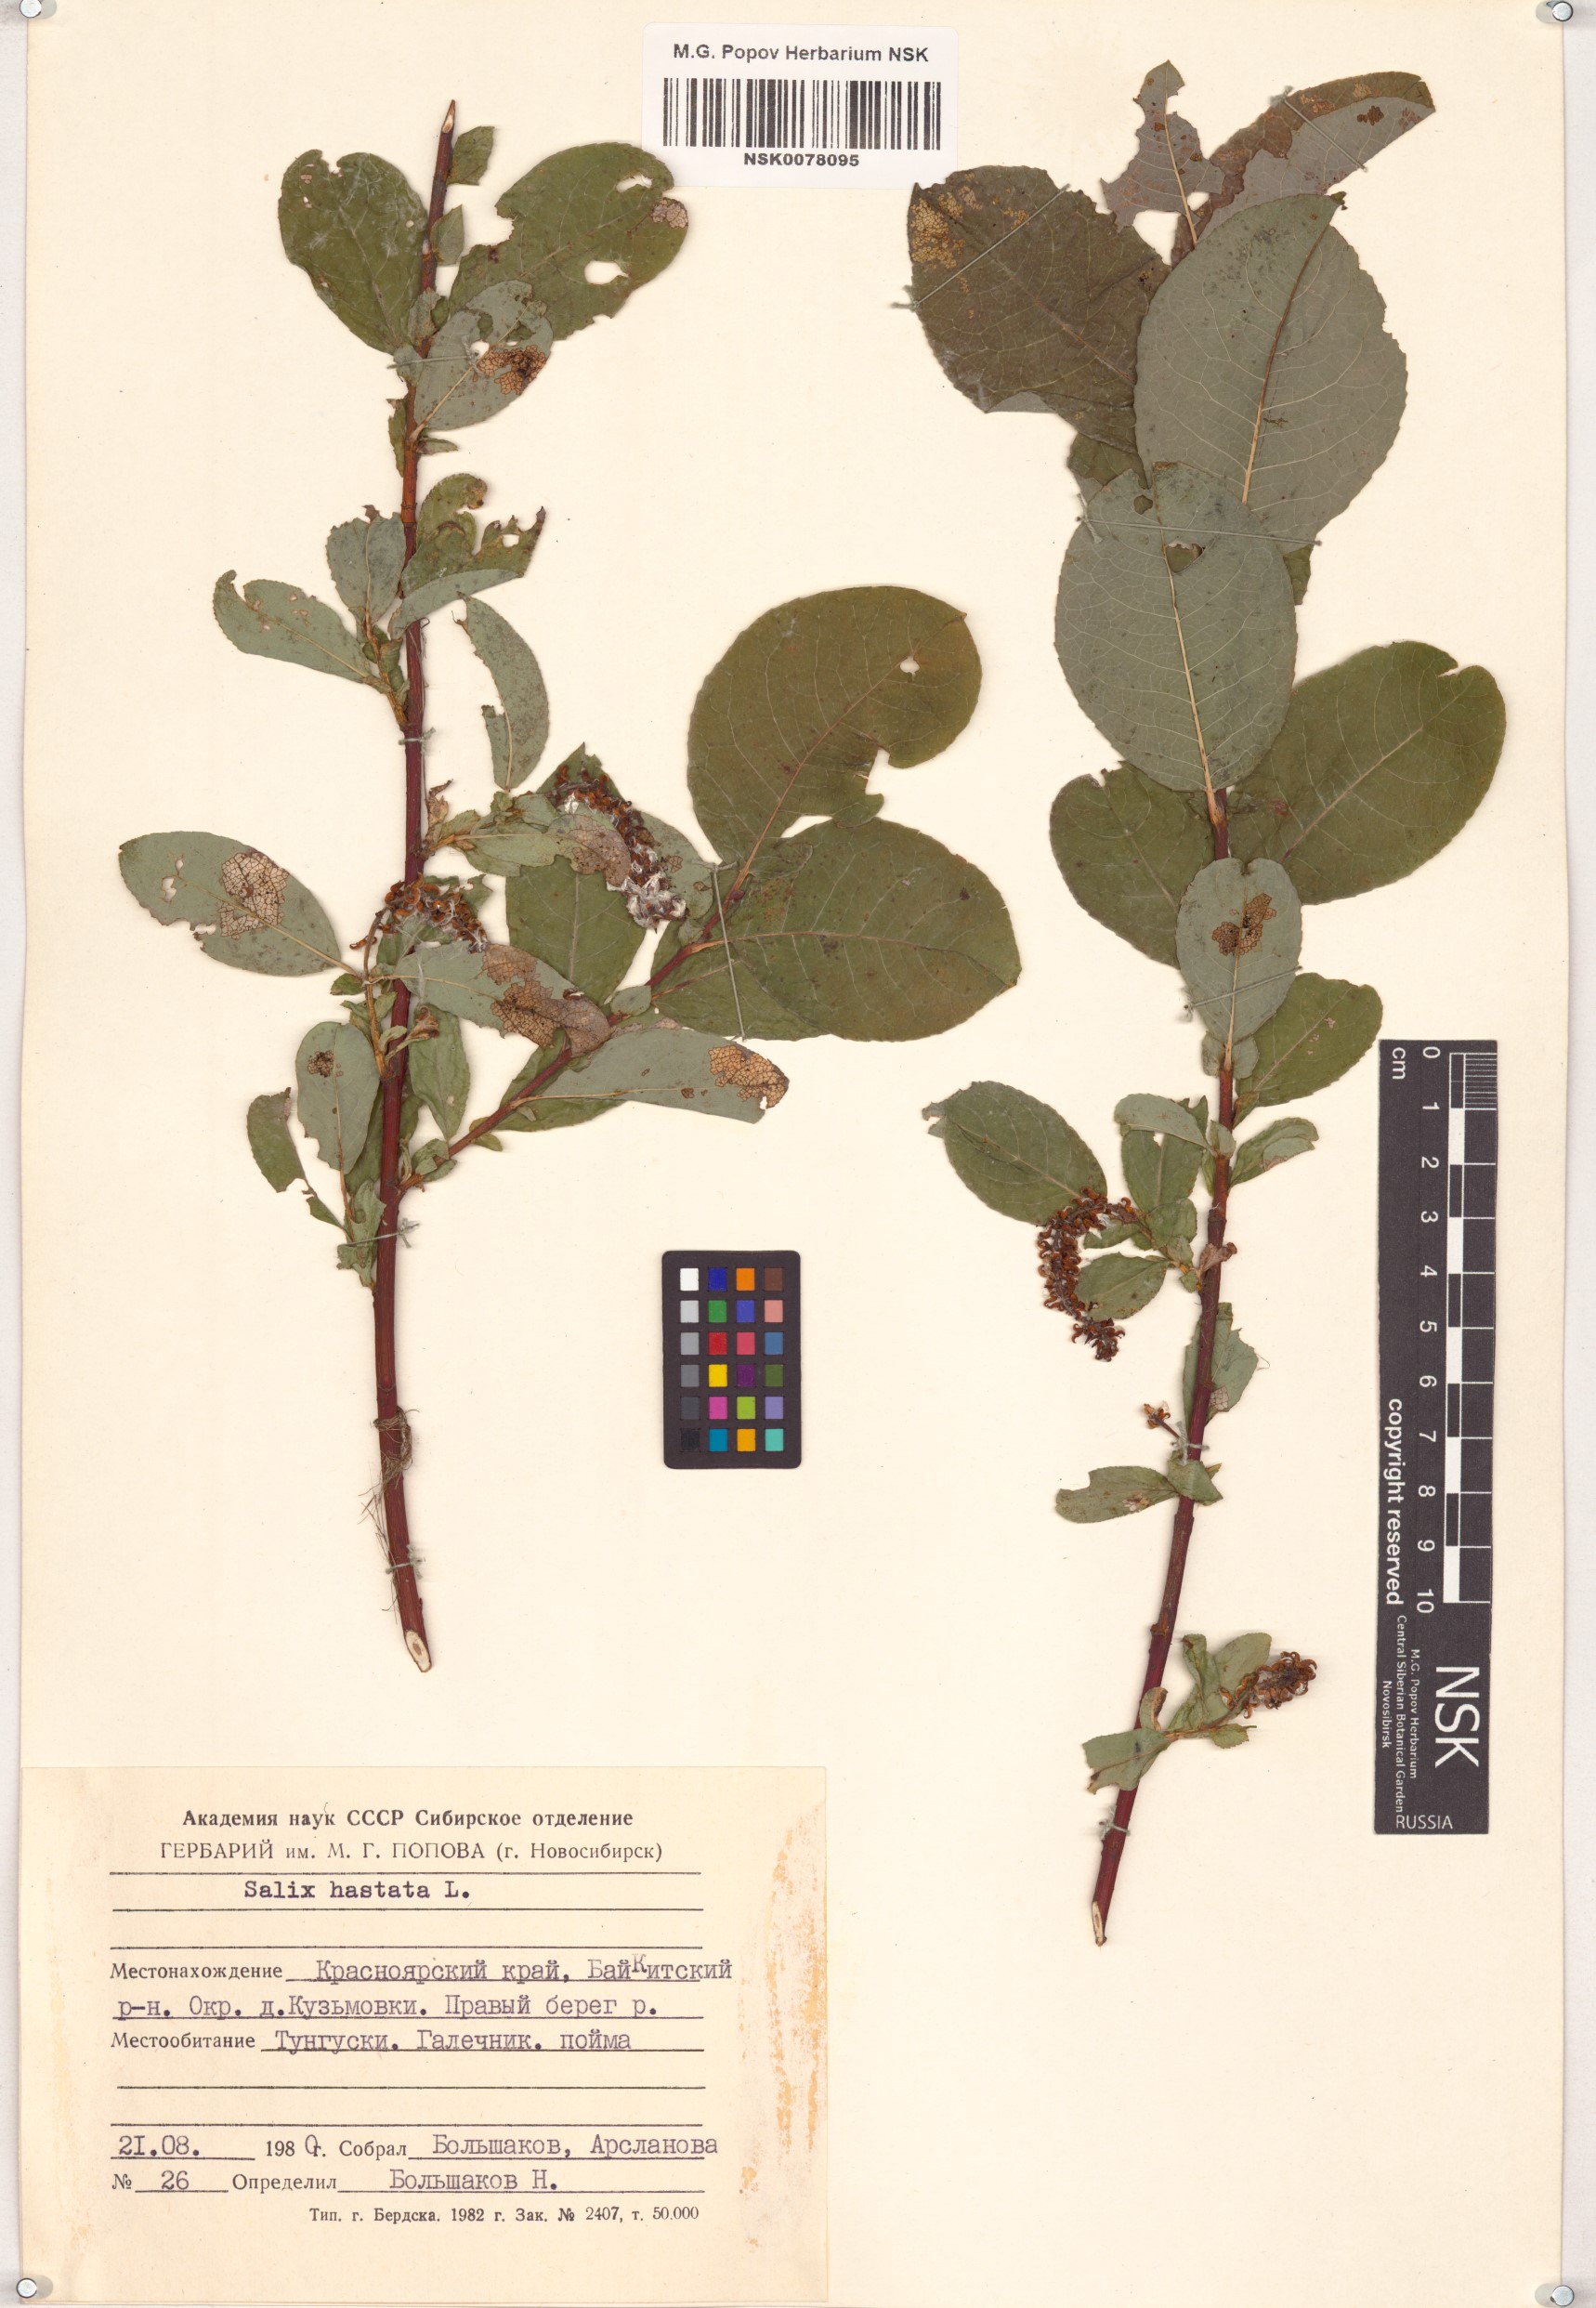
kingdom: Plantae
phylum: Tracheophyta
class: Magnoliopsida
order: Malpighiales
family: Salicaceae
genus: Salix
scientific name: Salix hastata
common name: Halberd willow
